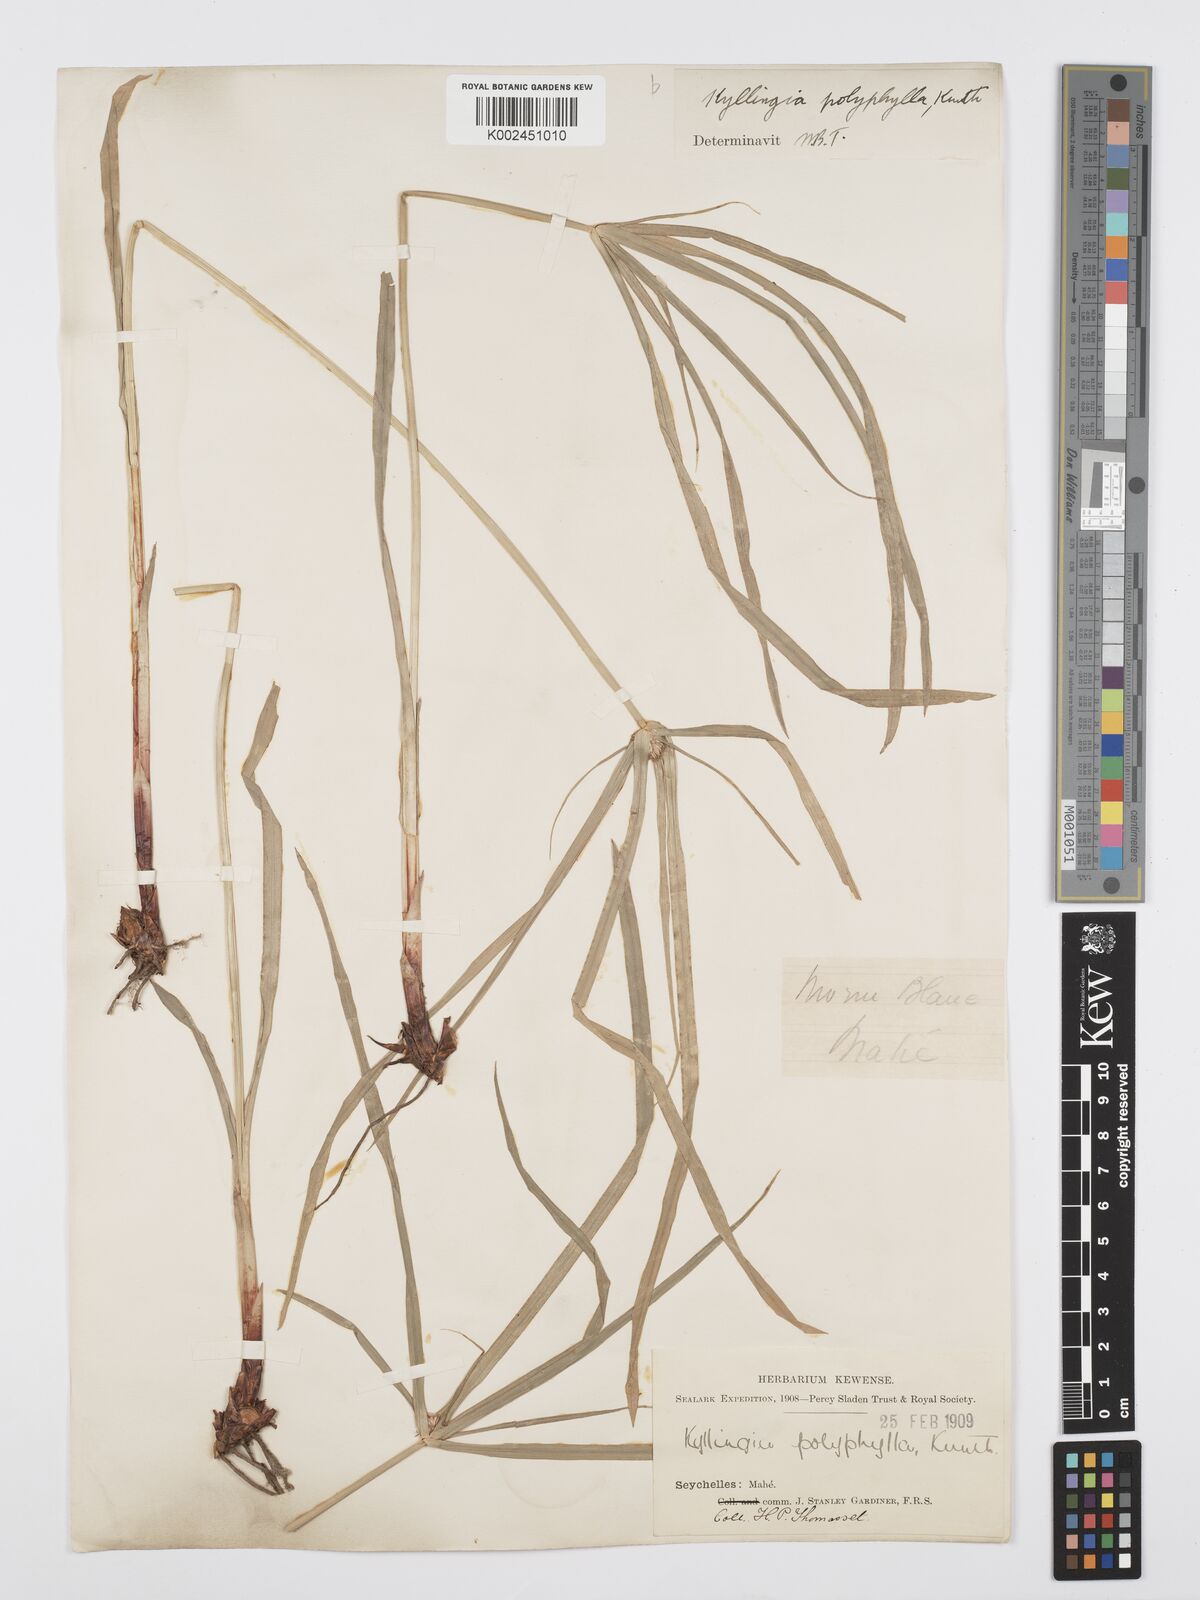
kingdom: Plantae
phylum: Tracheophyta
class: Liliopsida
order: Poales
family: Cyperaceae
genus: Cyperus
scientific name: Cyperus bulbosus
